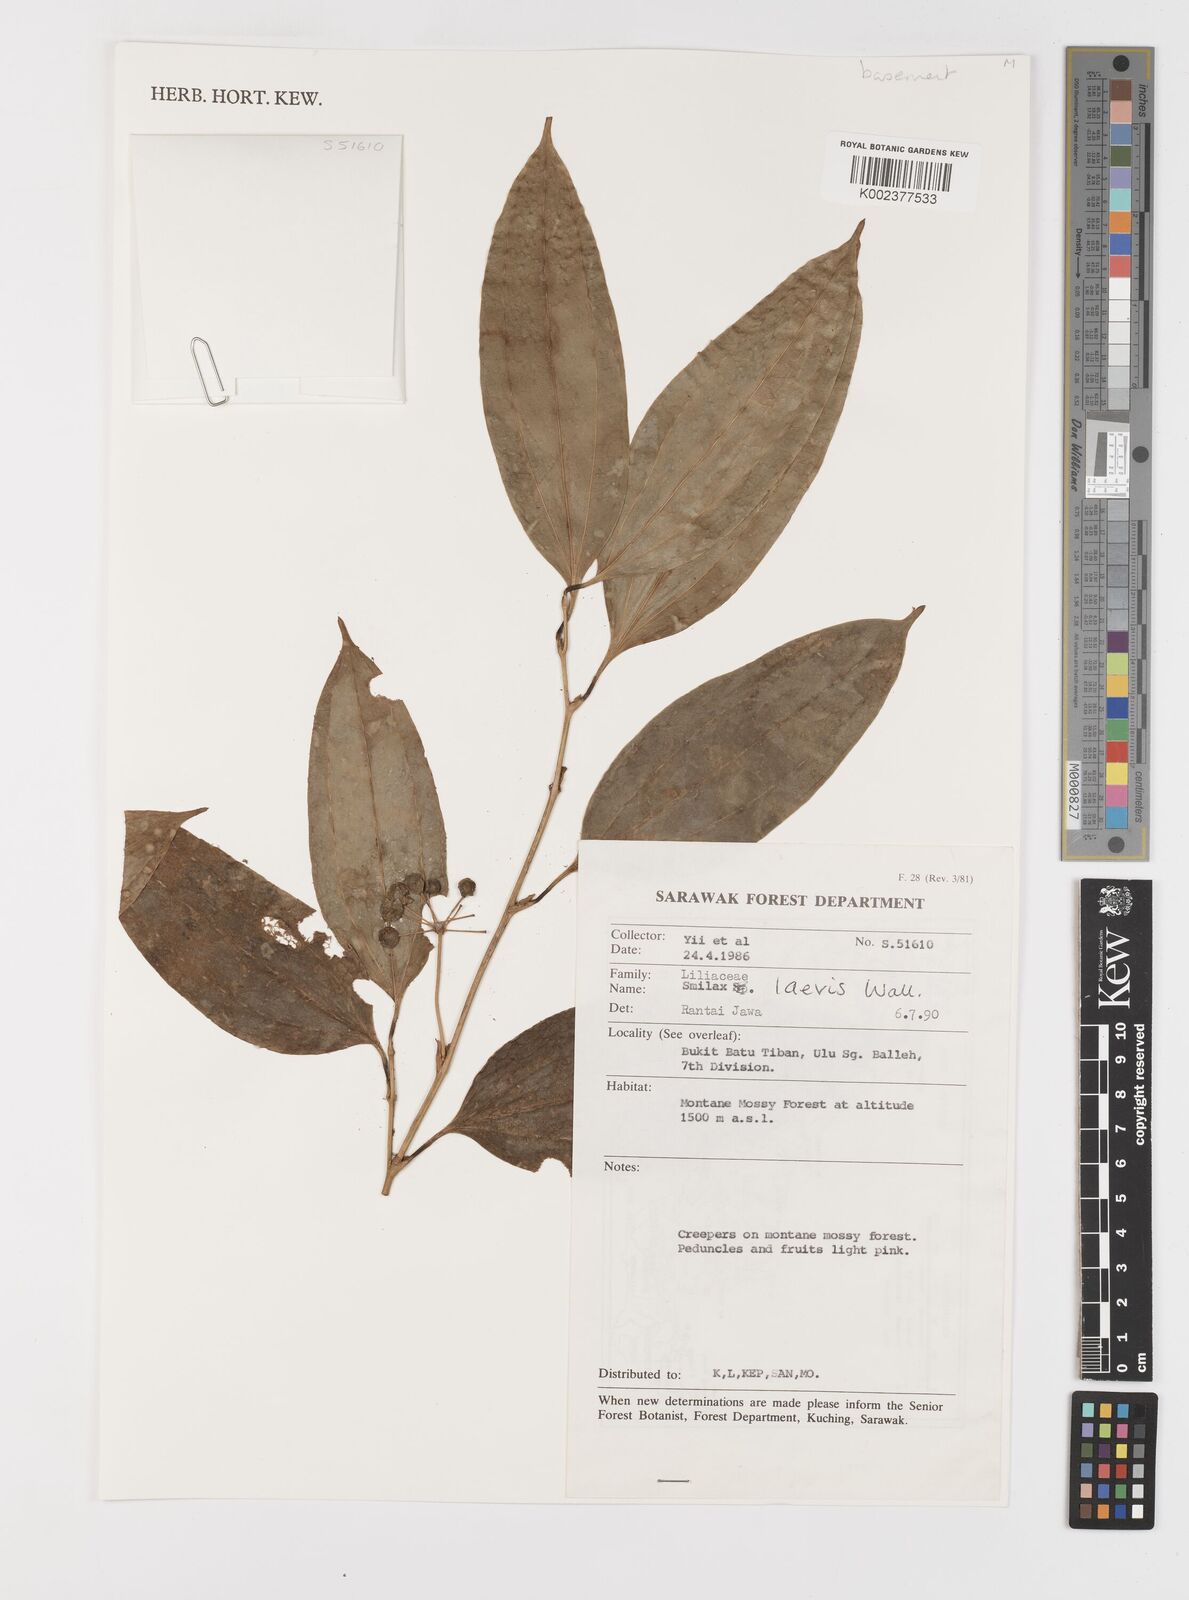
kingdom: Plantae
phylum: Tracheophyta
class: Liliopsida
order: Liliales
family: Smilacaceae
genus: Smilax
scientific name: Smilax laevis
